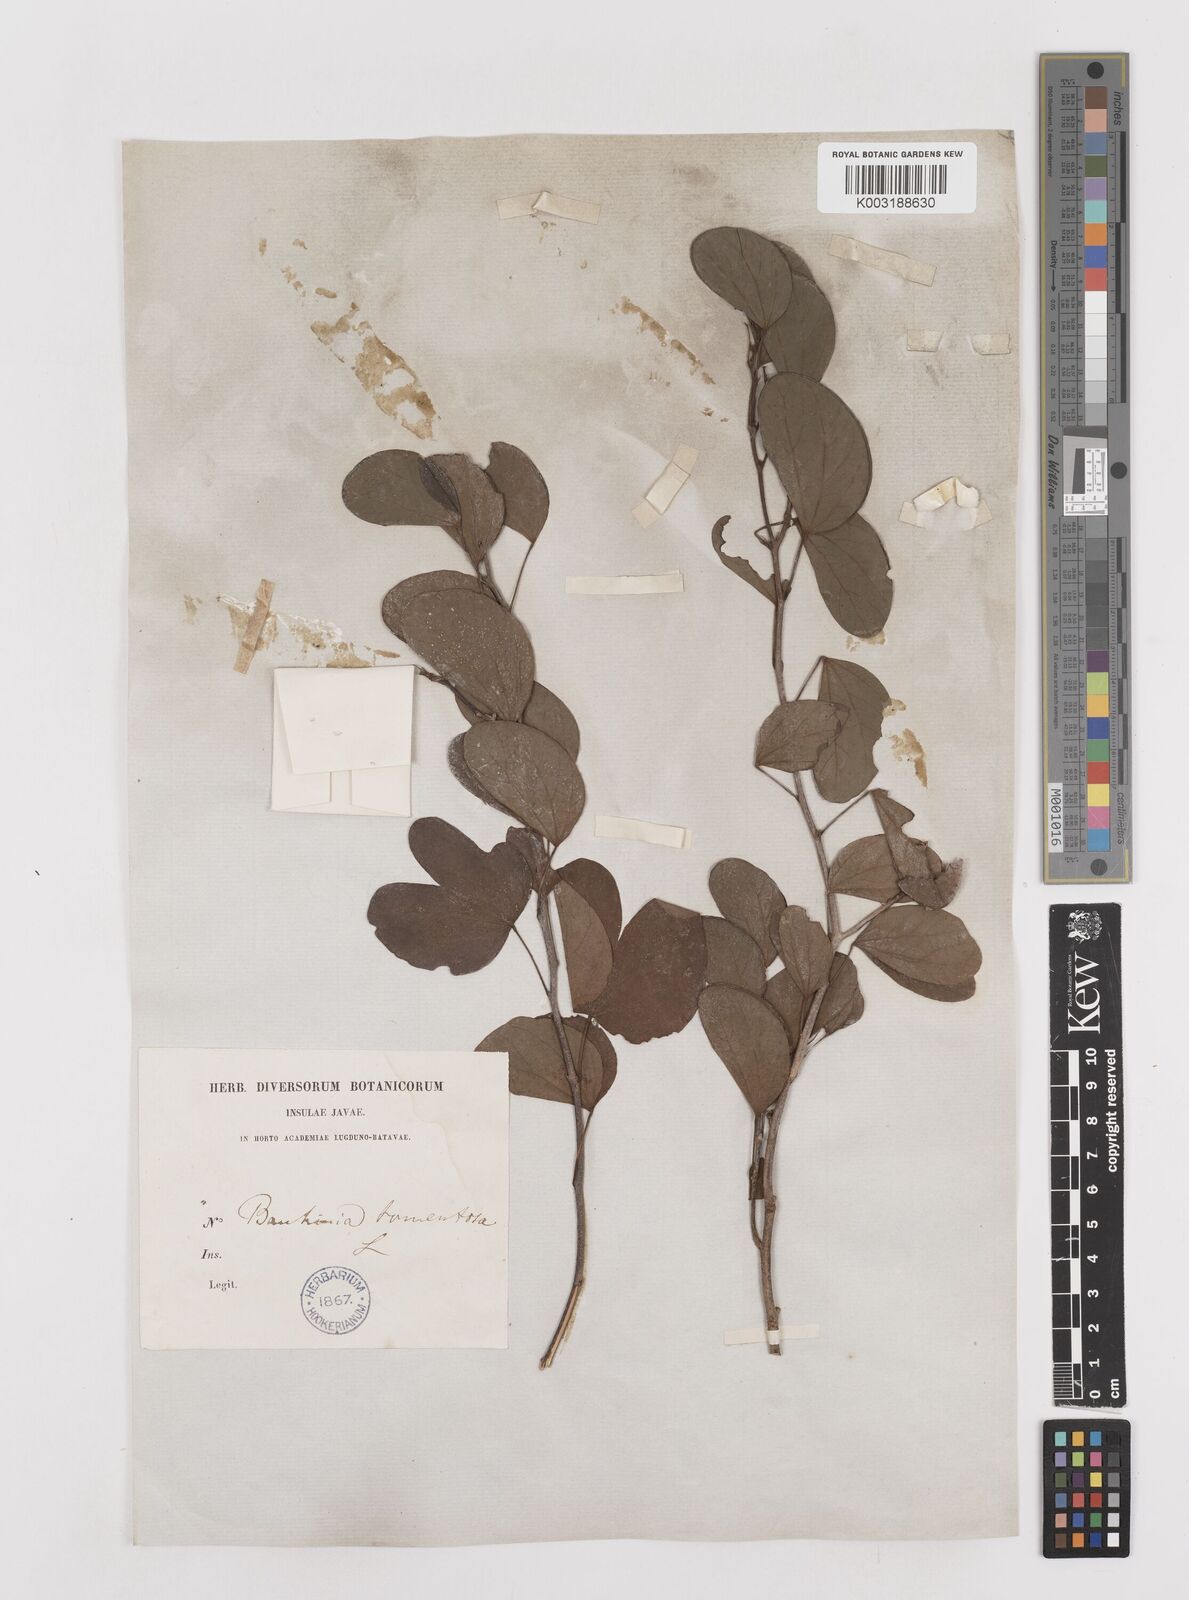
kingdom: Plantae
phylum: Tracheophyta
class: Magnoliopsida
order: Fabales
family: Fabaceae
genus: Bauhinia
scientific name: Bauhinia tomentosa
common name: Bell bauhinia
